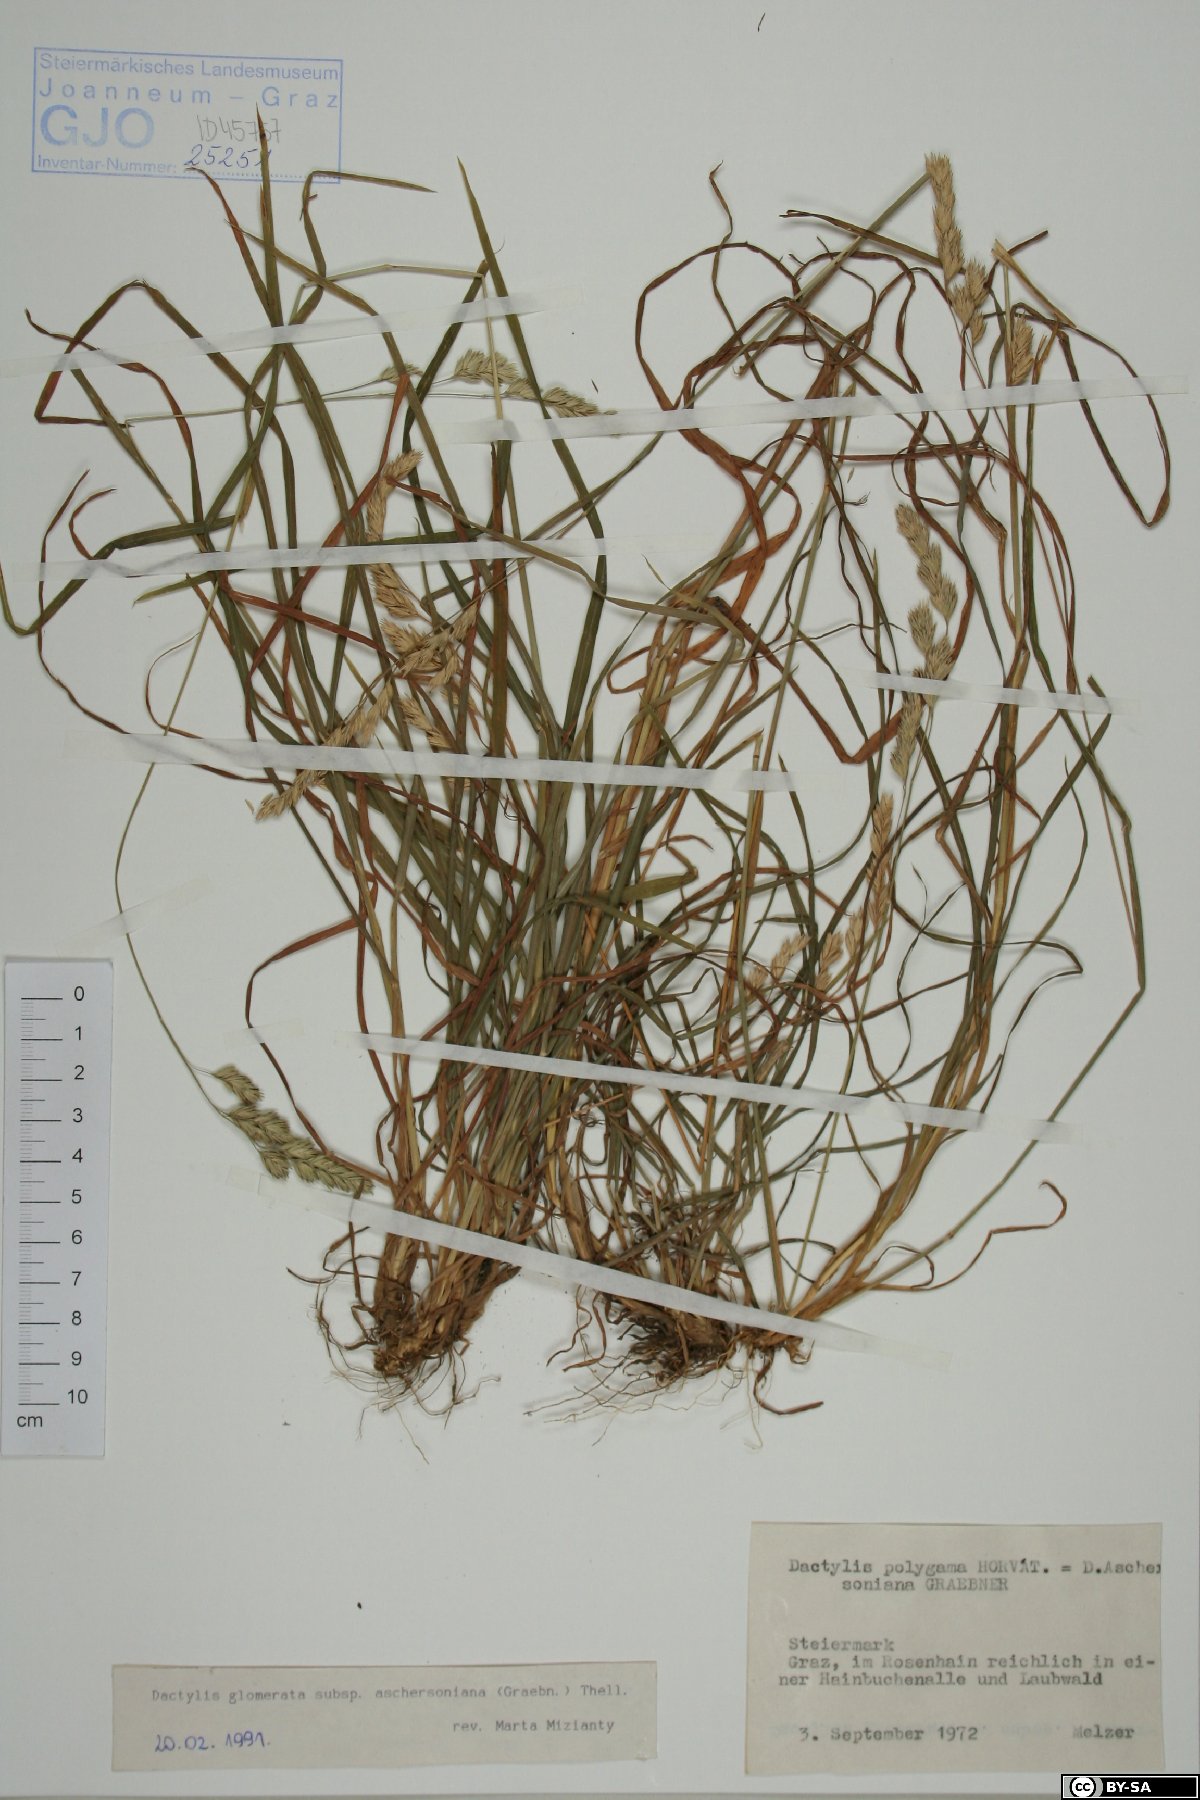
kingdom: Plantae
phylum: Tracheophyta
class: Liliopsida
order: Poales
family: Poaceae
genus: Dactylis
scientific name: Dactylis glomerata
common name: Orchardgrass
